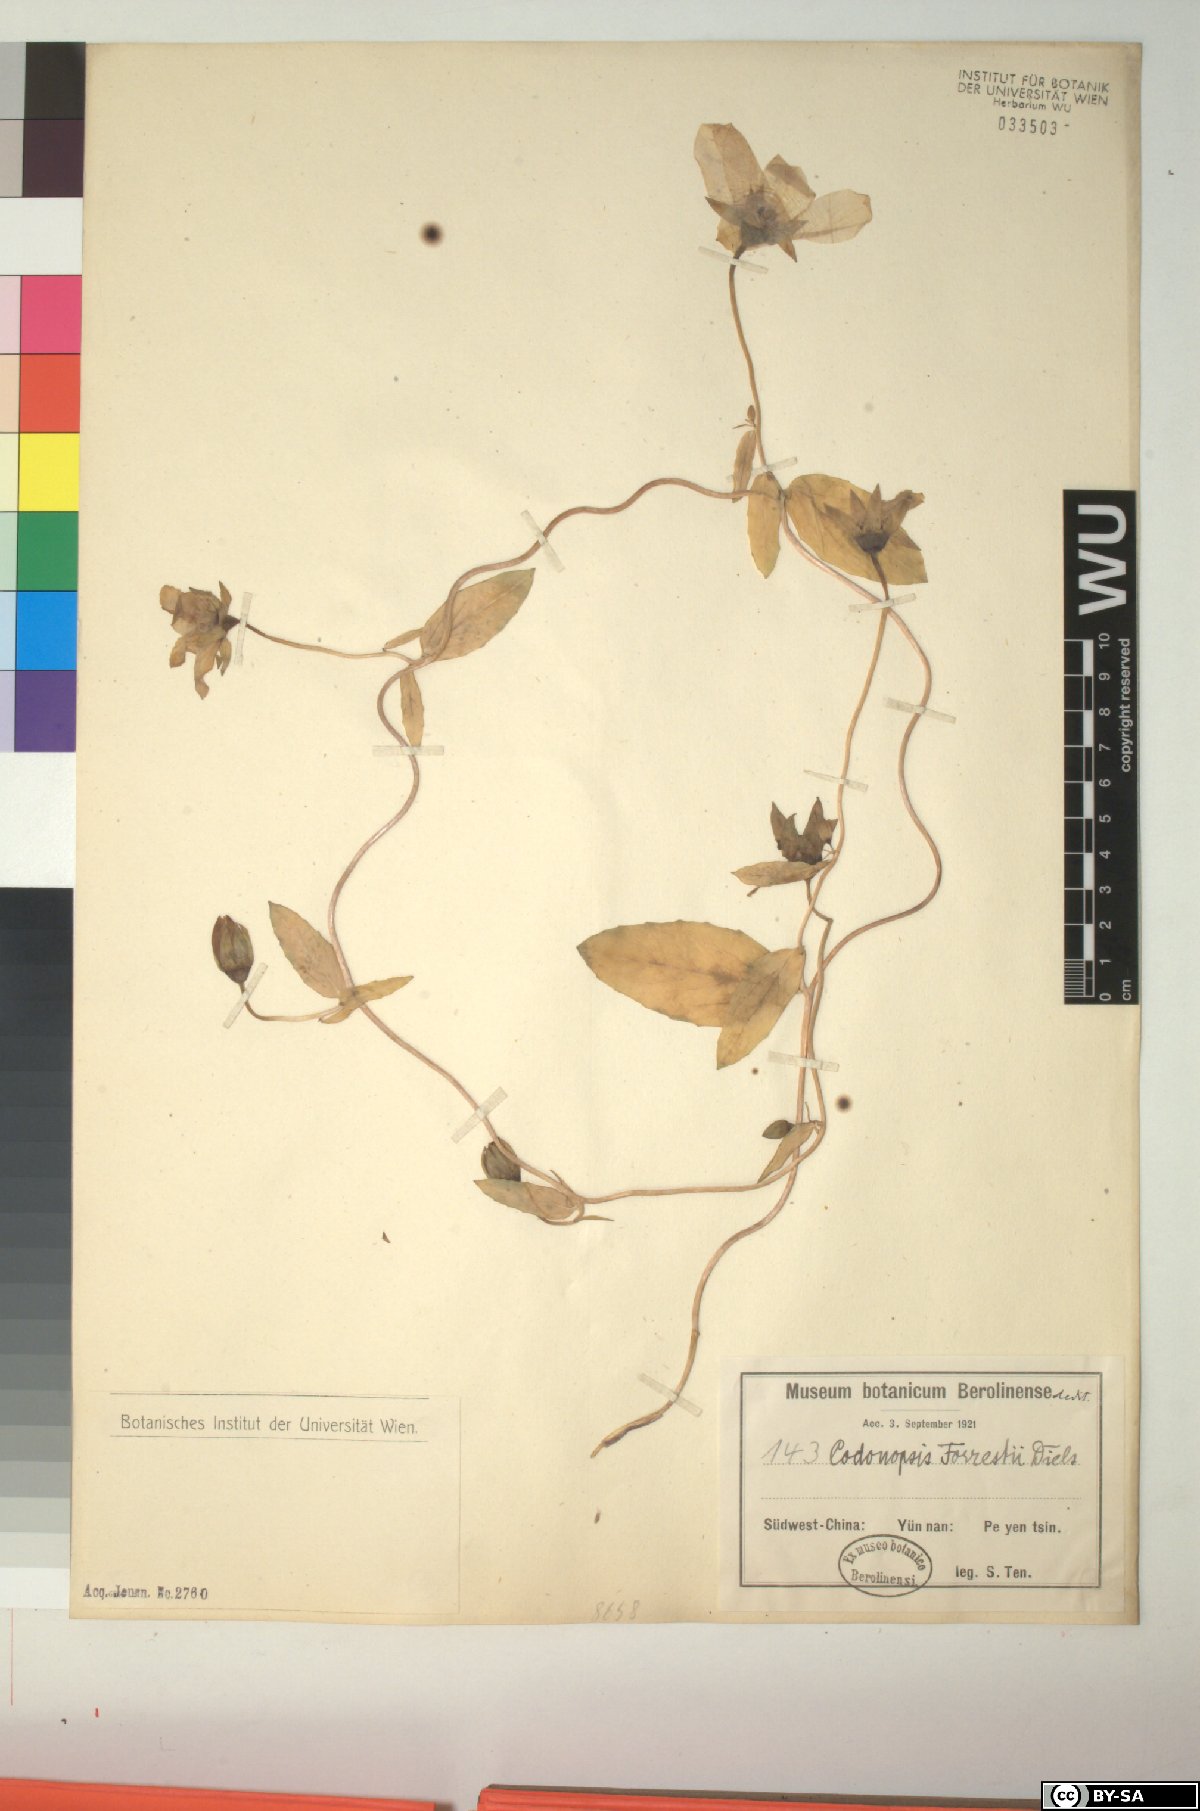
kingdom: Plantae
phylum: Tracheophyta
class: Magnoliopsida
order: Asterales
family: Campanulaceae
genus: Pseudocodon
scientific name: Pseudocodon convolvulaceus
